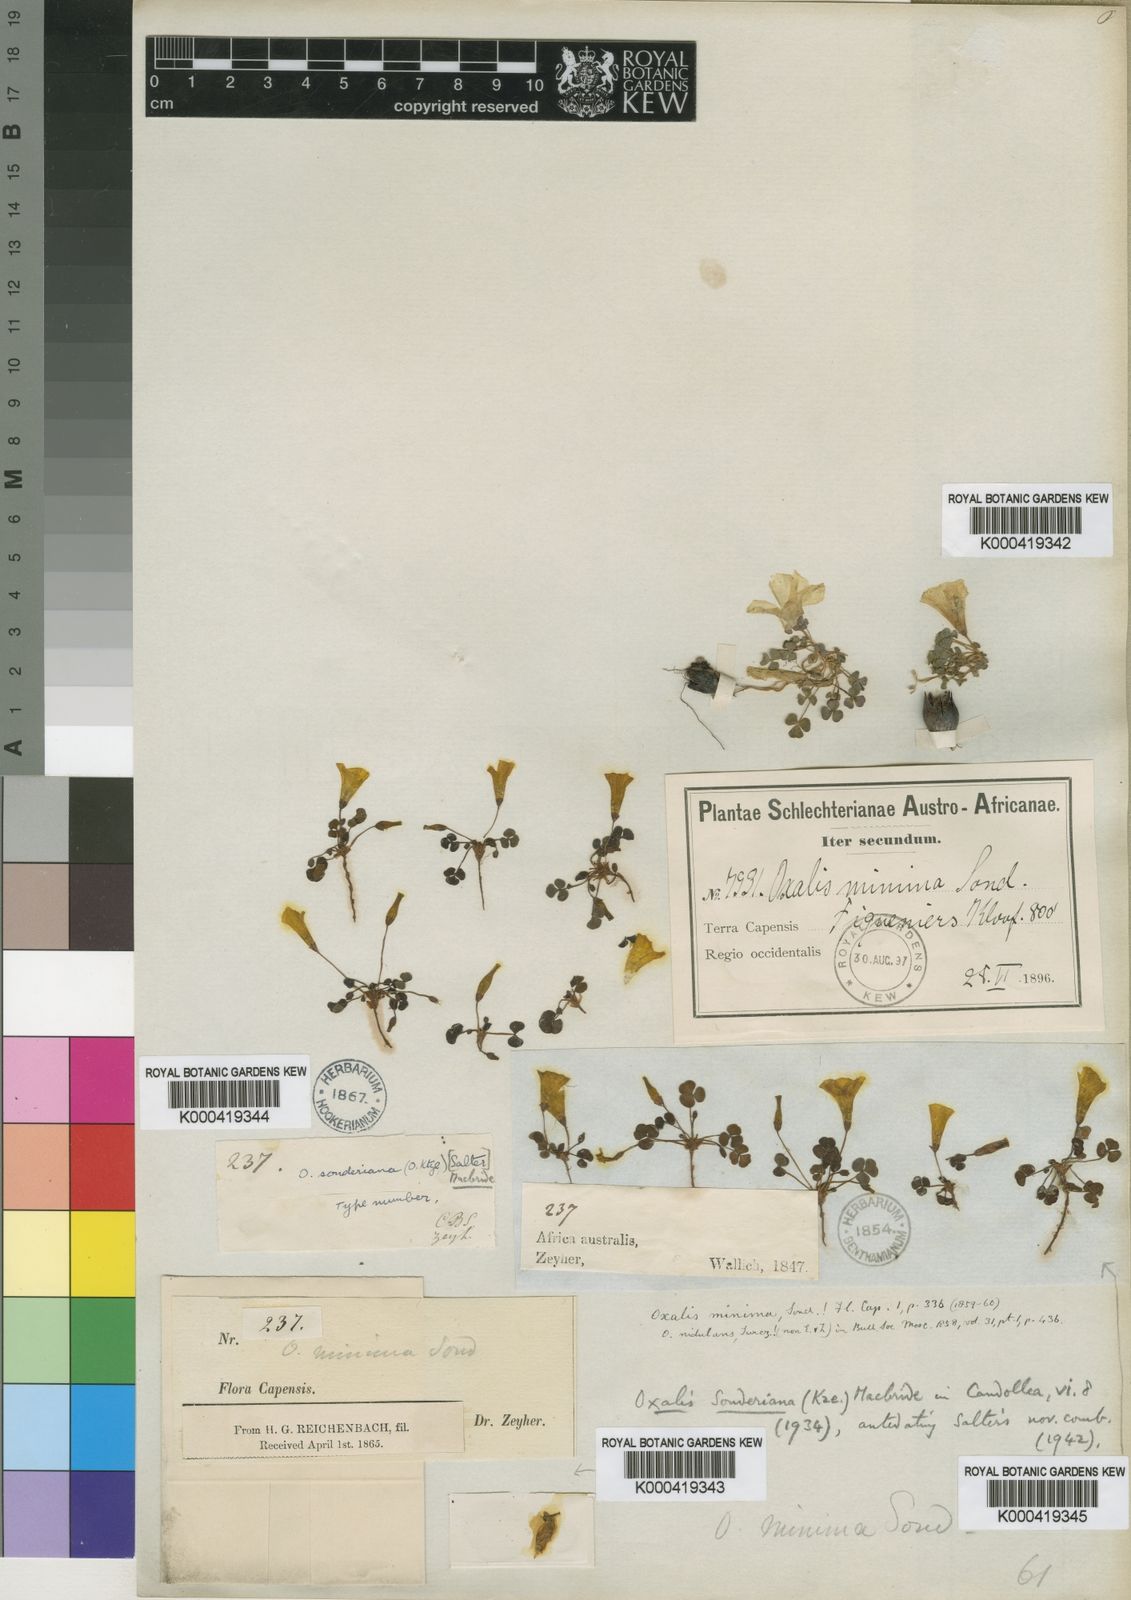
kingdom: Plantae
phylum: Tracheophyta
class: Magnoliopsida
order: Oxalidales
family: Oxalidaceae
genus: Oxalis
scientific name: Oxalis
